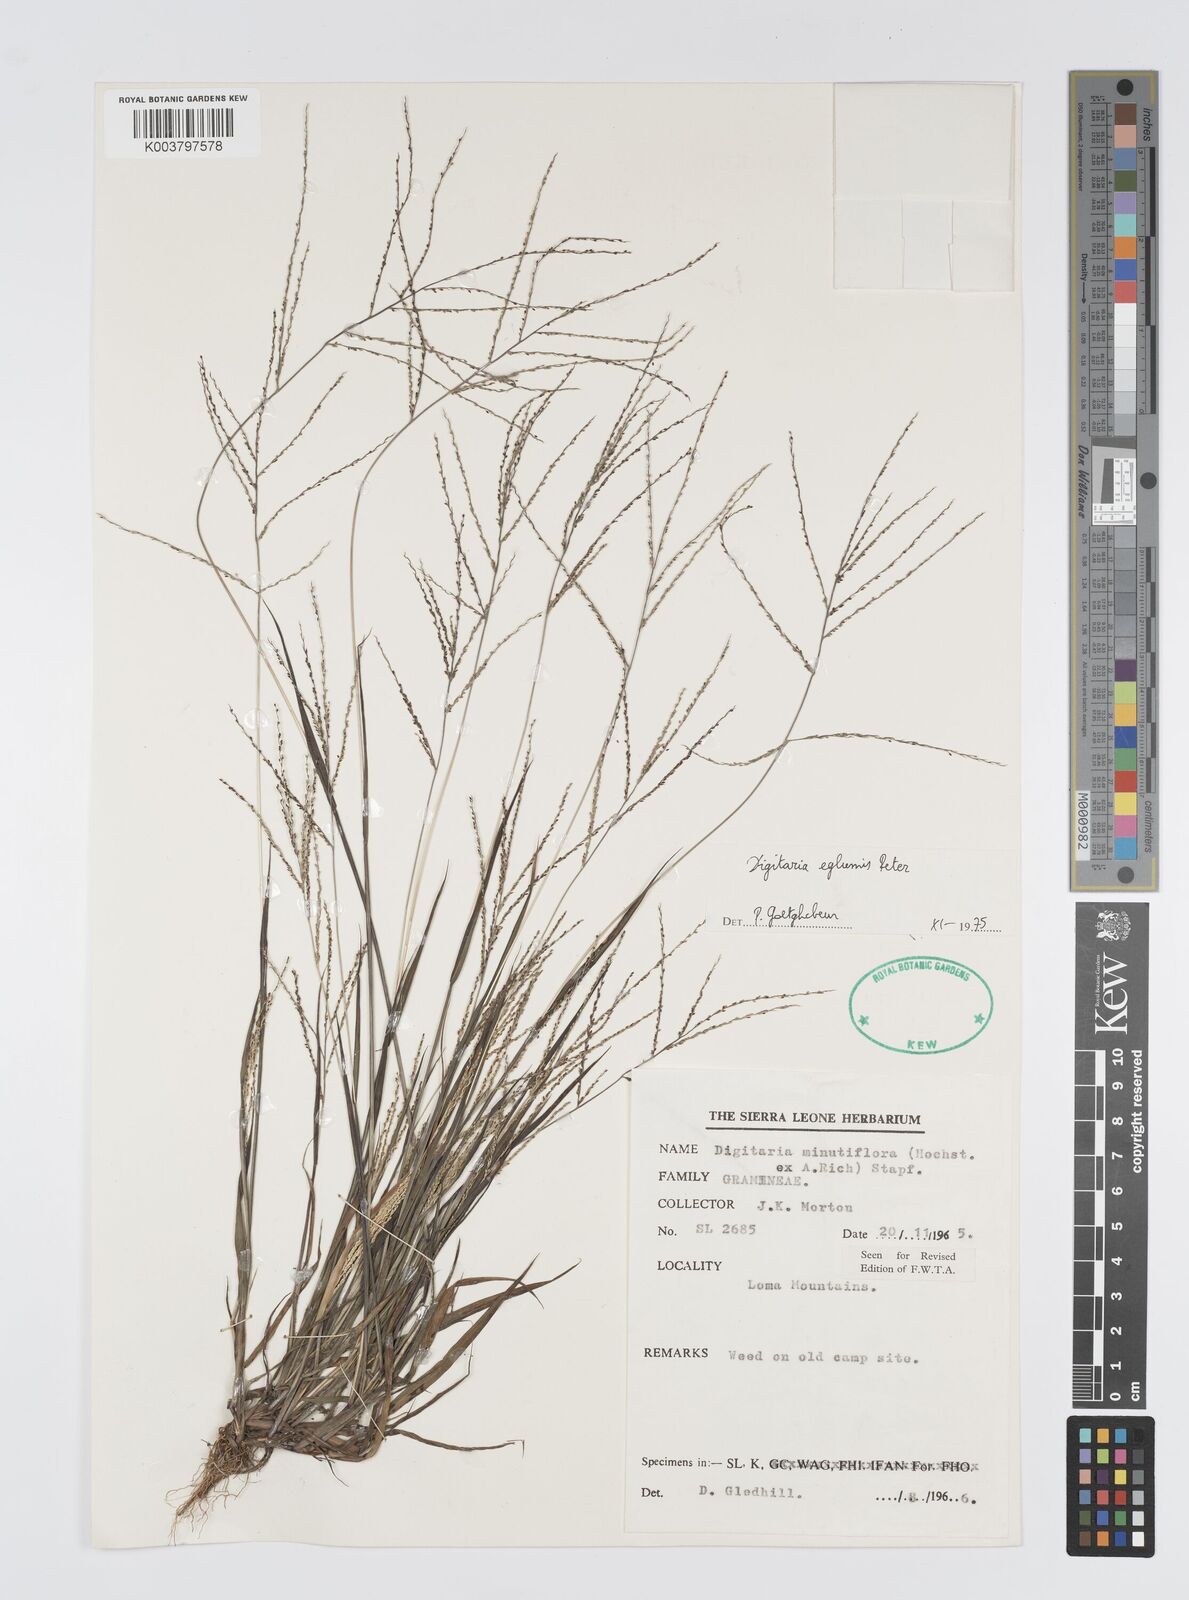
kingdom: Plantae
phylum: Tracheophyta
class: Liliopsida
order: Poales
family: Poaceae
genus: Digitaria
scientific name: Digitaria pseudodiagonalis
